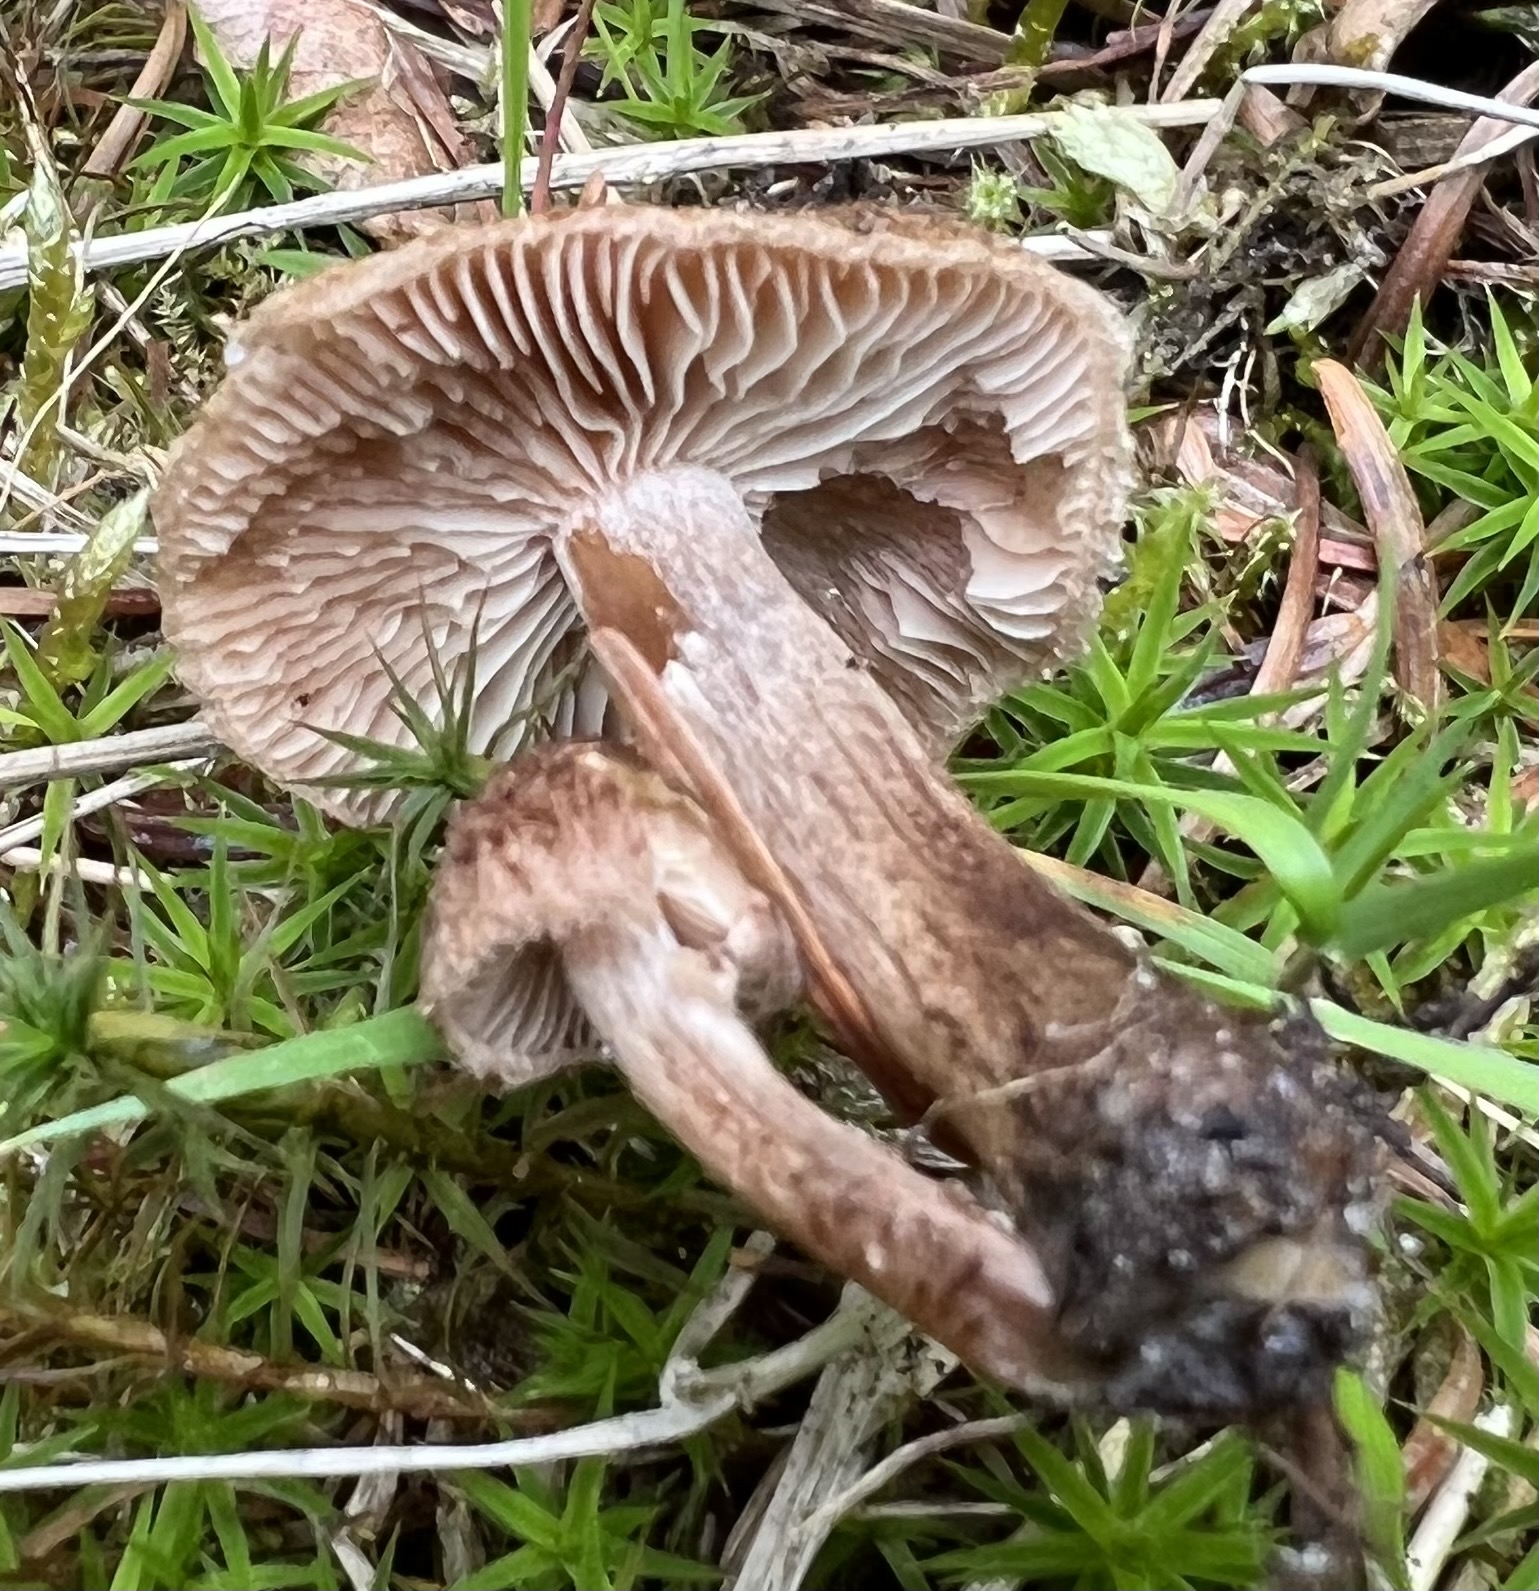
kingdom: Fungi
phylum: Basidiomycota
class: Agaricomycetes
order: Agaricales
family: Inocybaceae
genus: Inocybe
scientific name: Inocybe
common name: trævlhat
